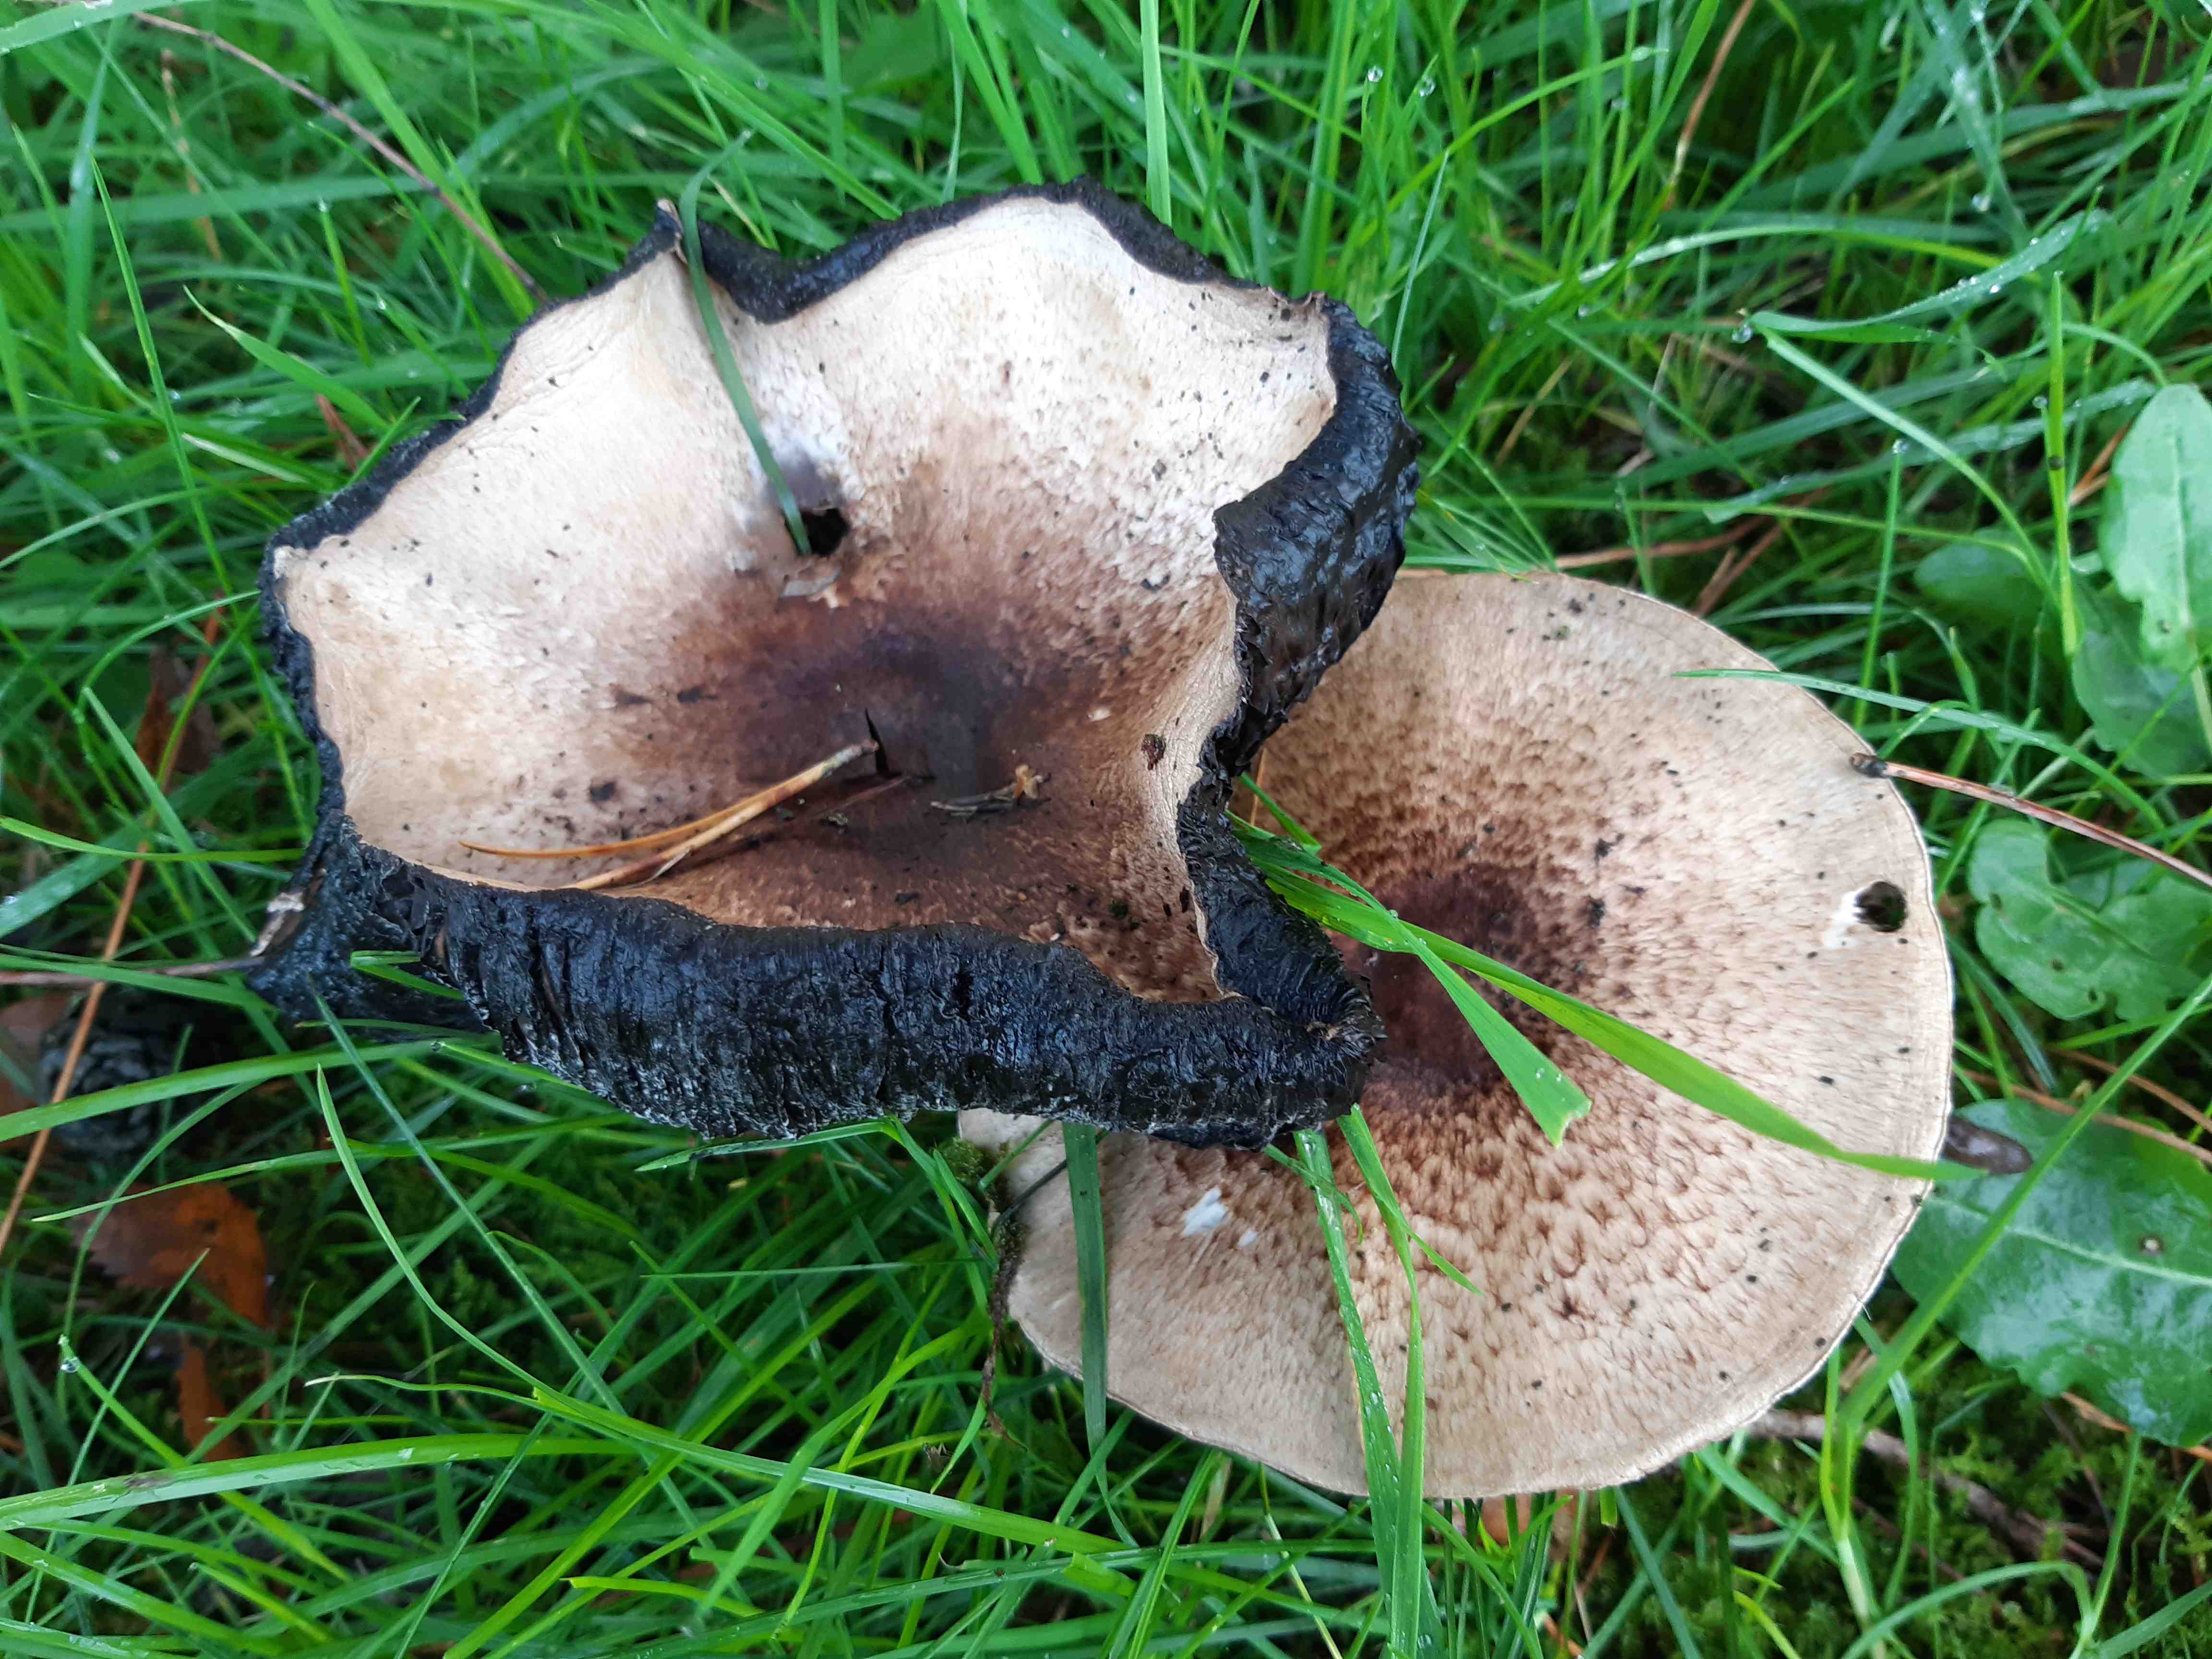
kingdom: Fungi
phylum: Basidiomycota
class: Agaricomycetes
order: Agaricales
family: Agaricaceae
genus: Agaricus
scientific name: Agaricus impudicus
